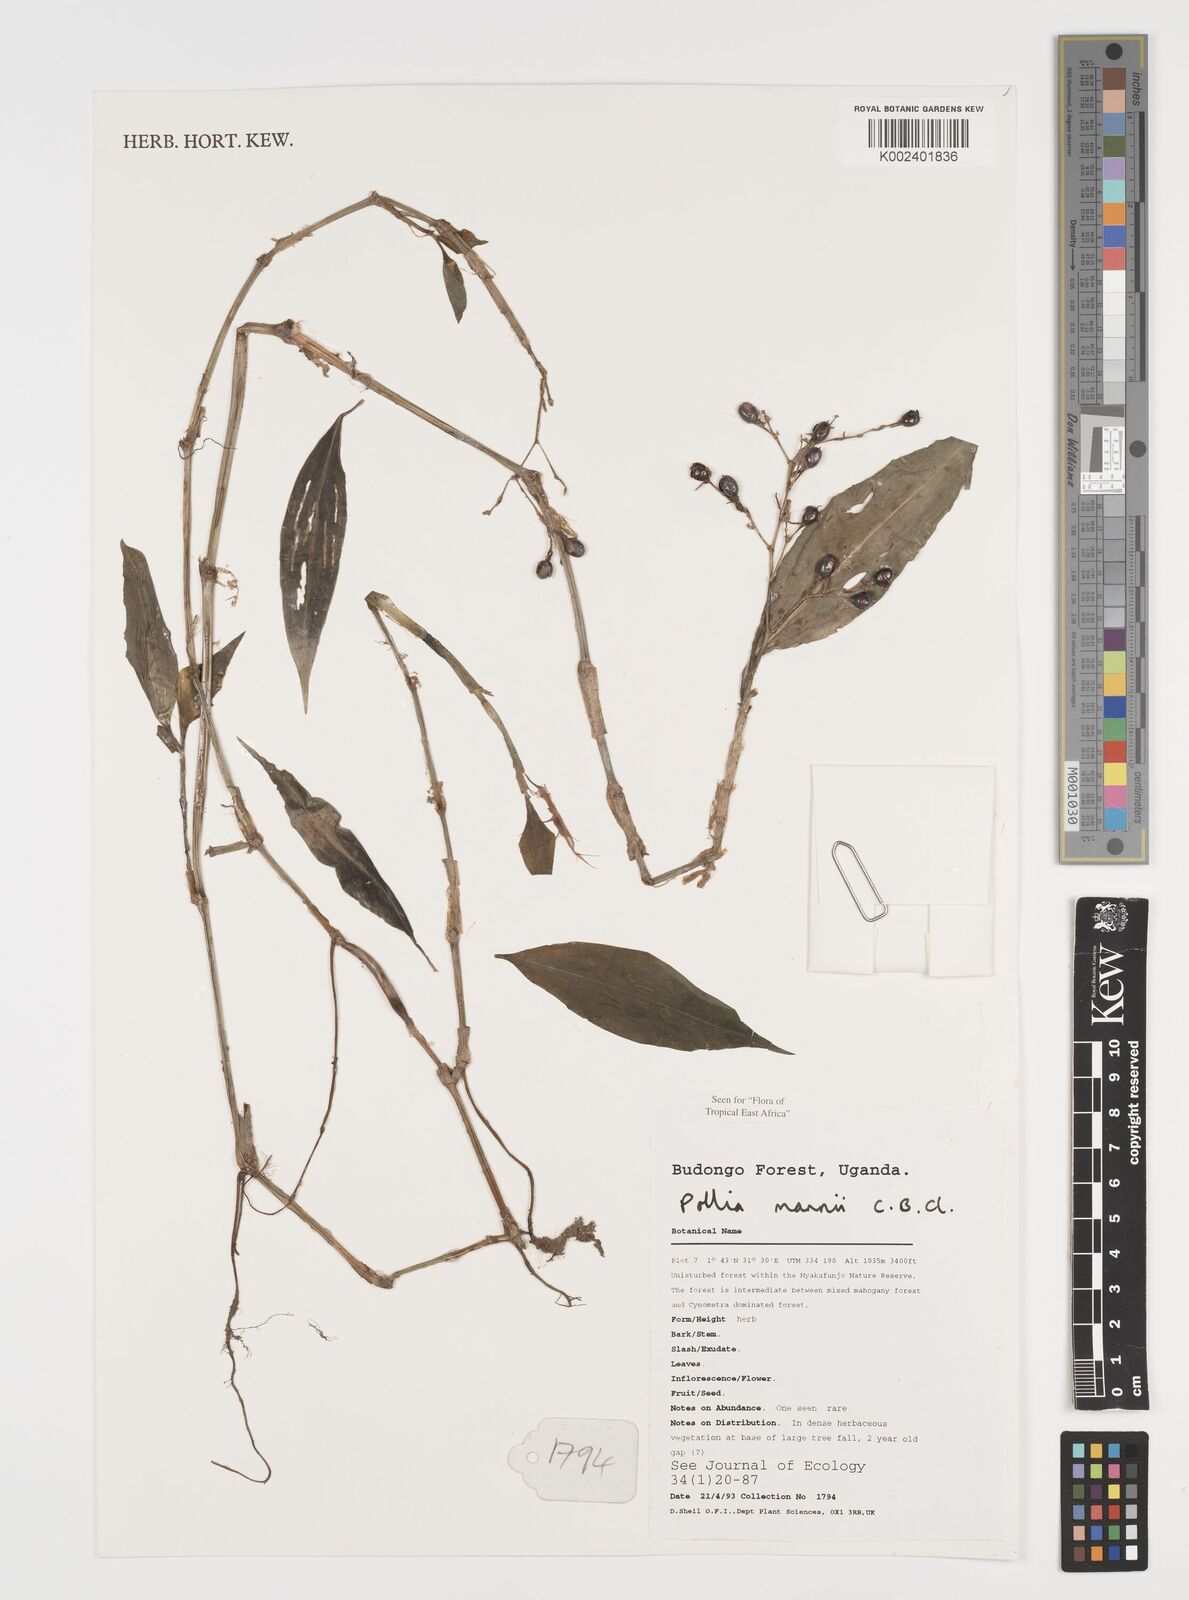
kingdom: Plantae
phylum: Tracheophyta
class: Liliopsida
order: Commelinales
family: Commelinaceae
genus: Pollia
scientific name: Pollia mannii
